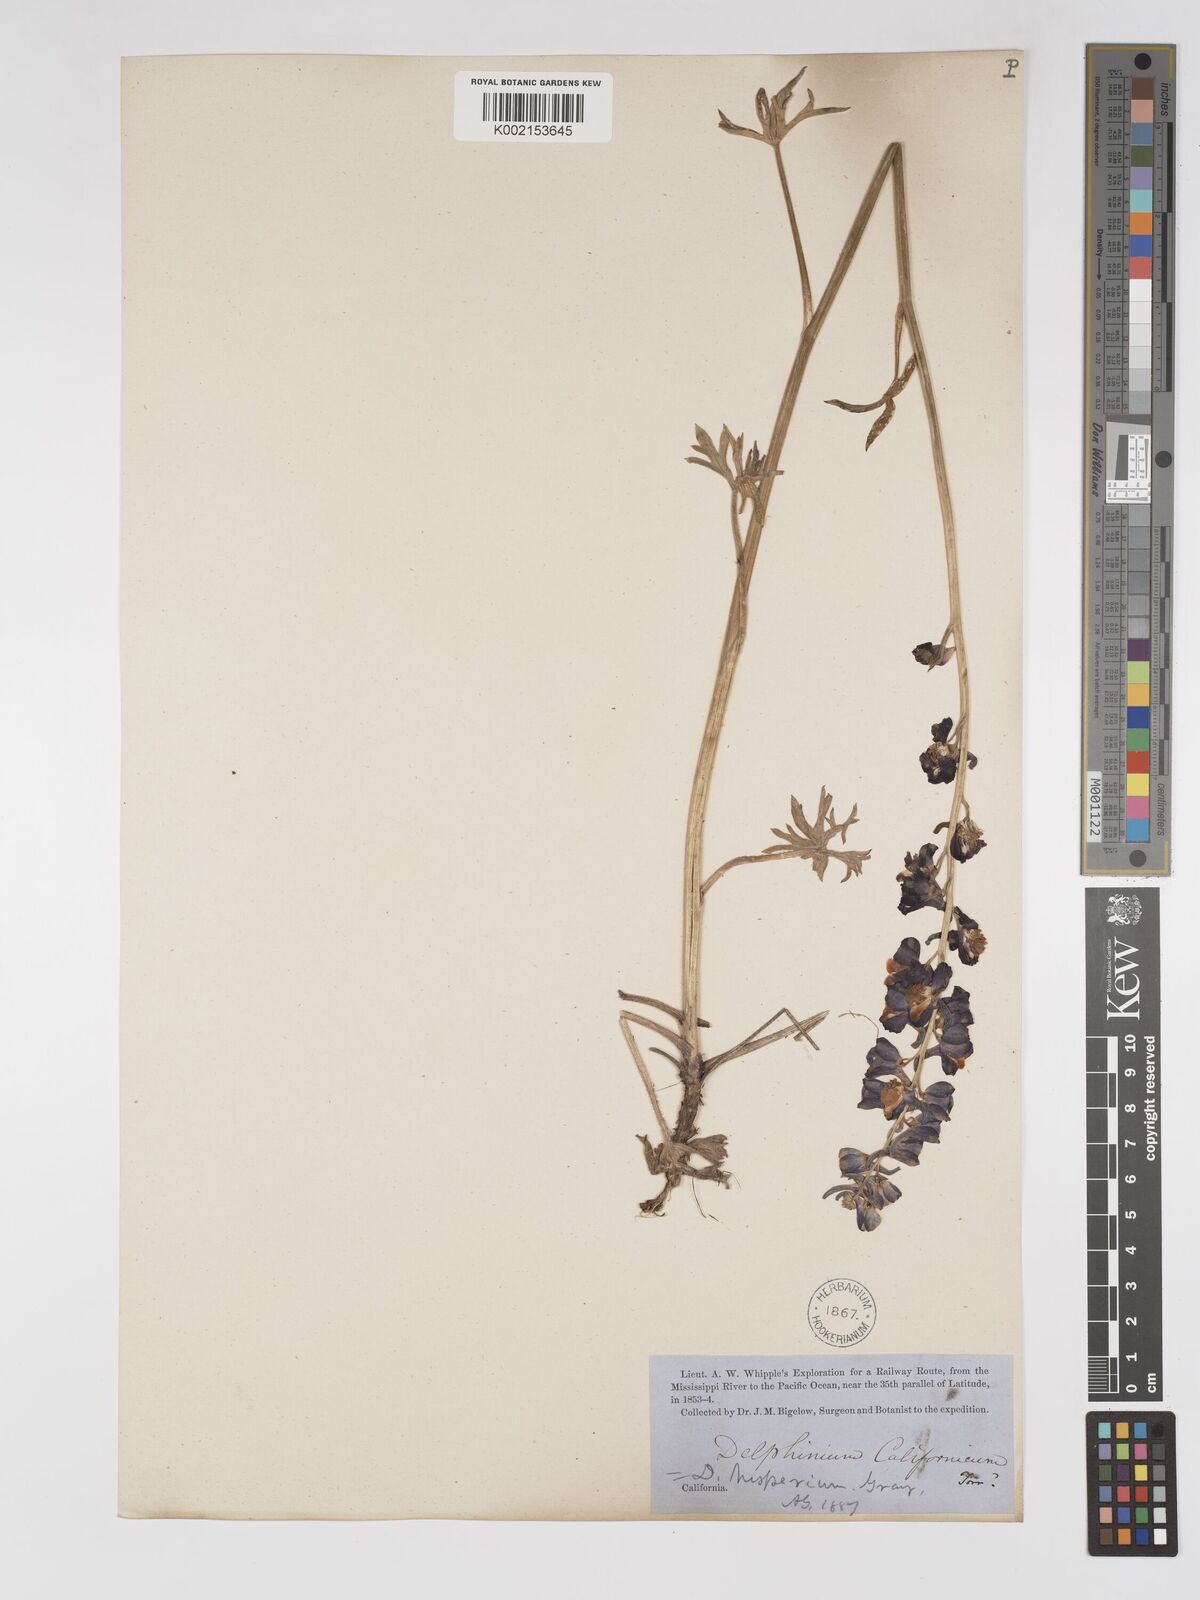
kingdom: Plantae
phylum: Tracheophyta
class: Magnoliopsida
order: Ranunculales
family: Ranunculaceae
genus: Delphinium
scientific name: Delphinium hesperium
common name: Western larkspur
